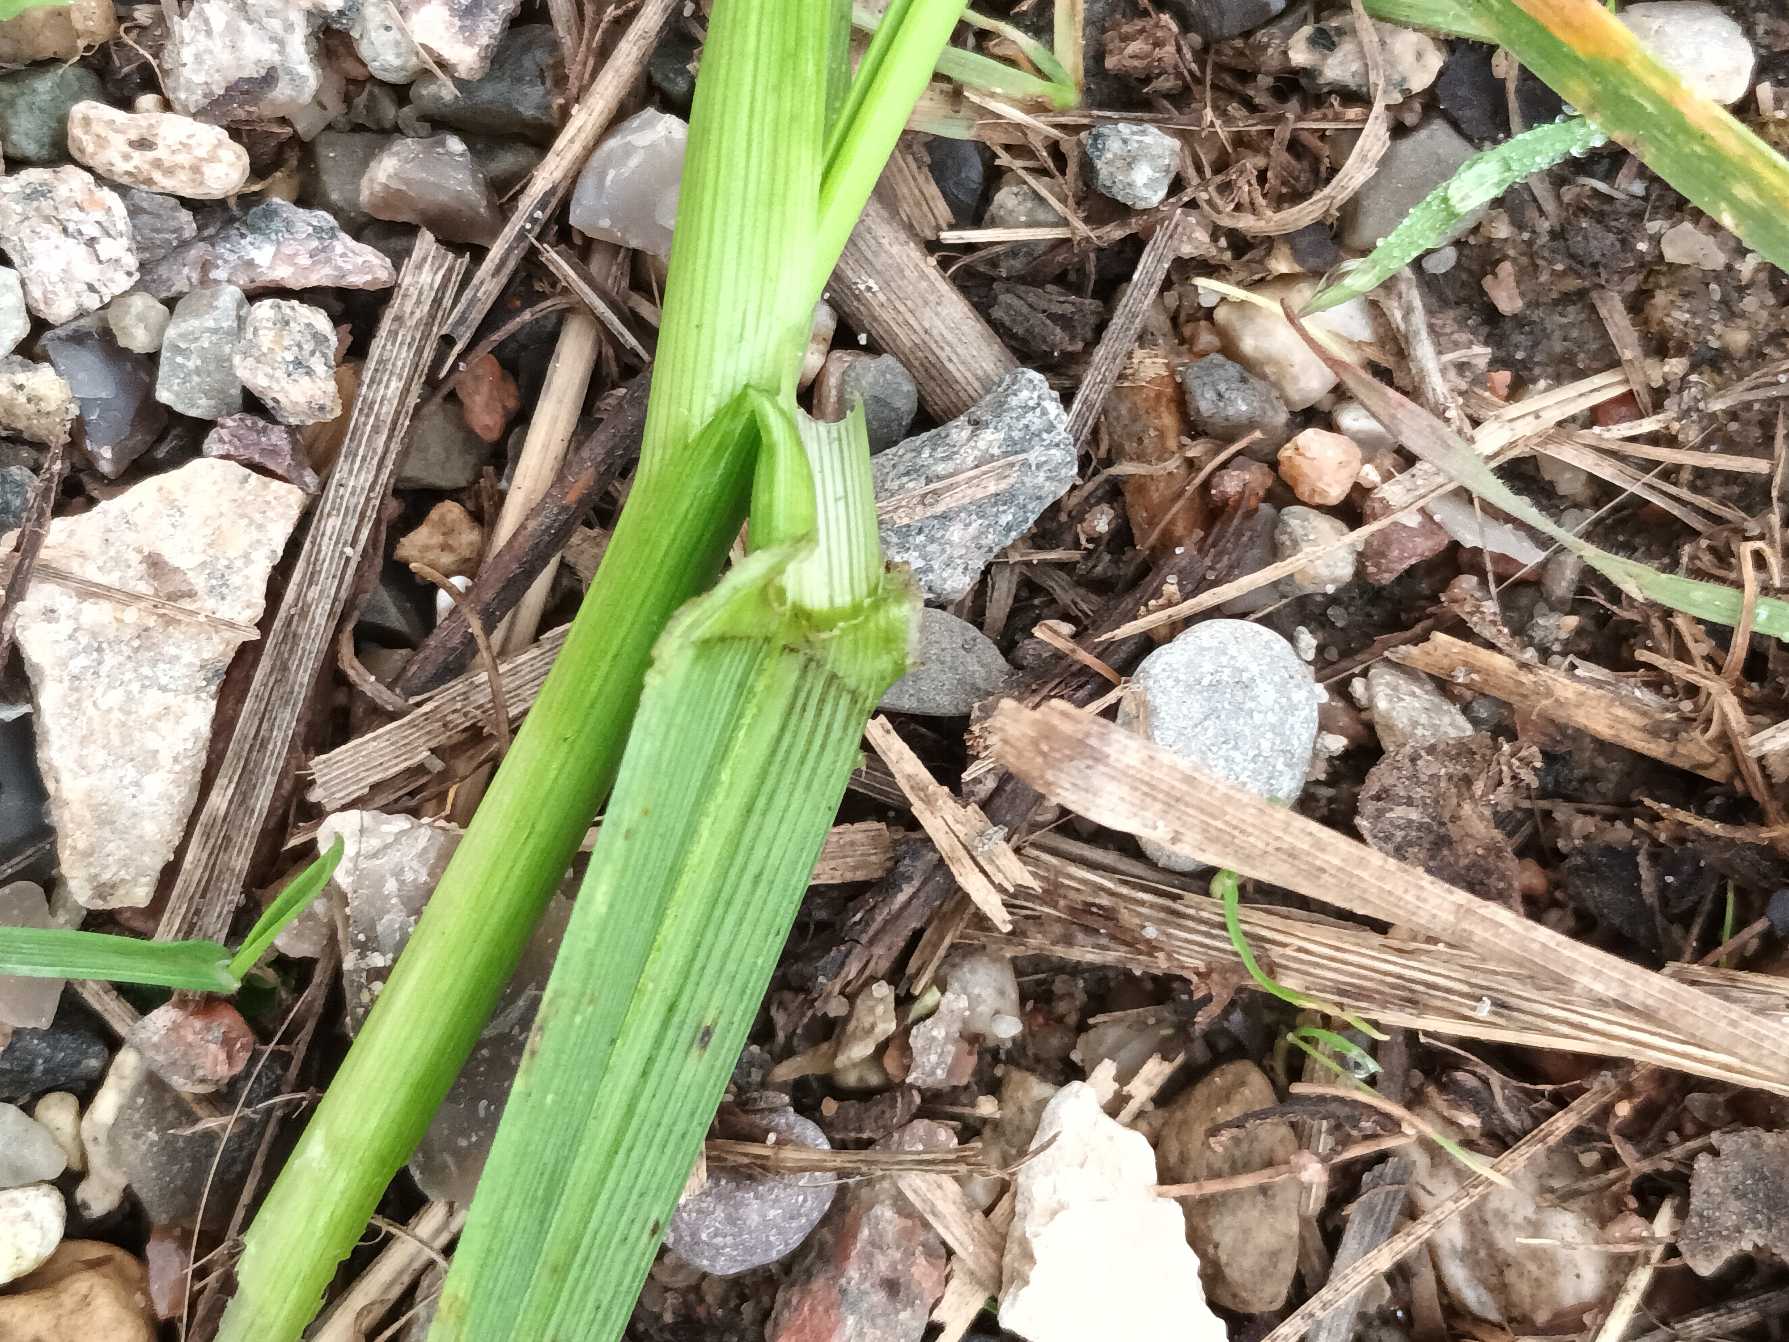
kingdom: Plantae
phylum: Tracheophyta
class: Liliopsida
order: Poales
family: Poaceae
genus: Lolium
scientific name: Lolium arundinaceum
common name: Strand-svingel
